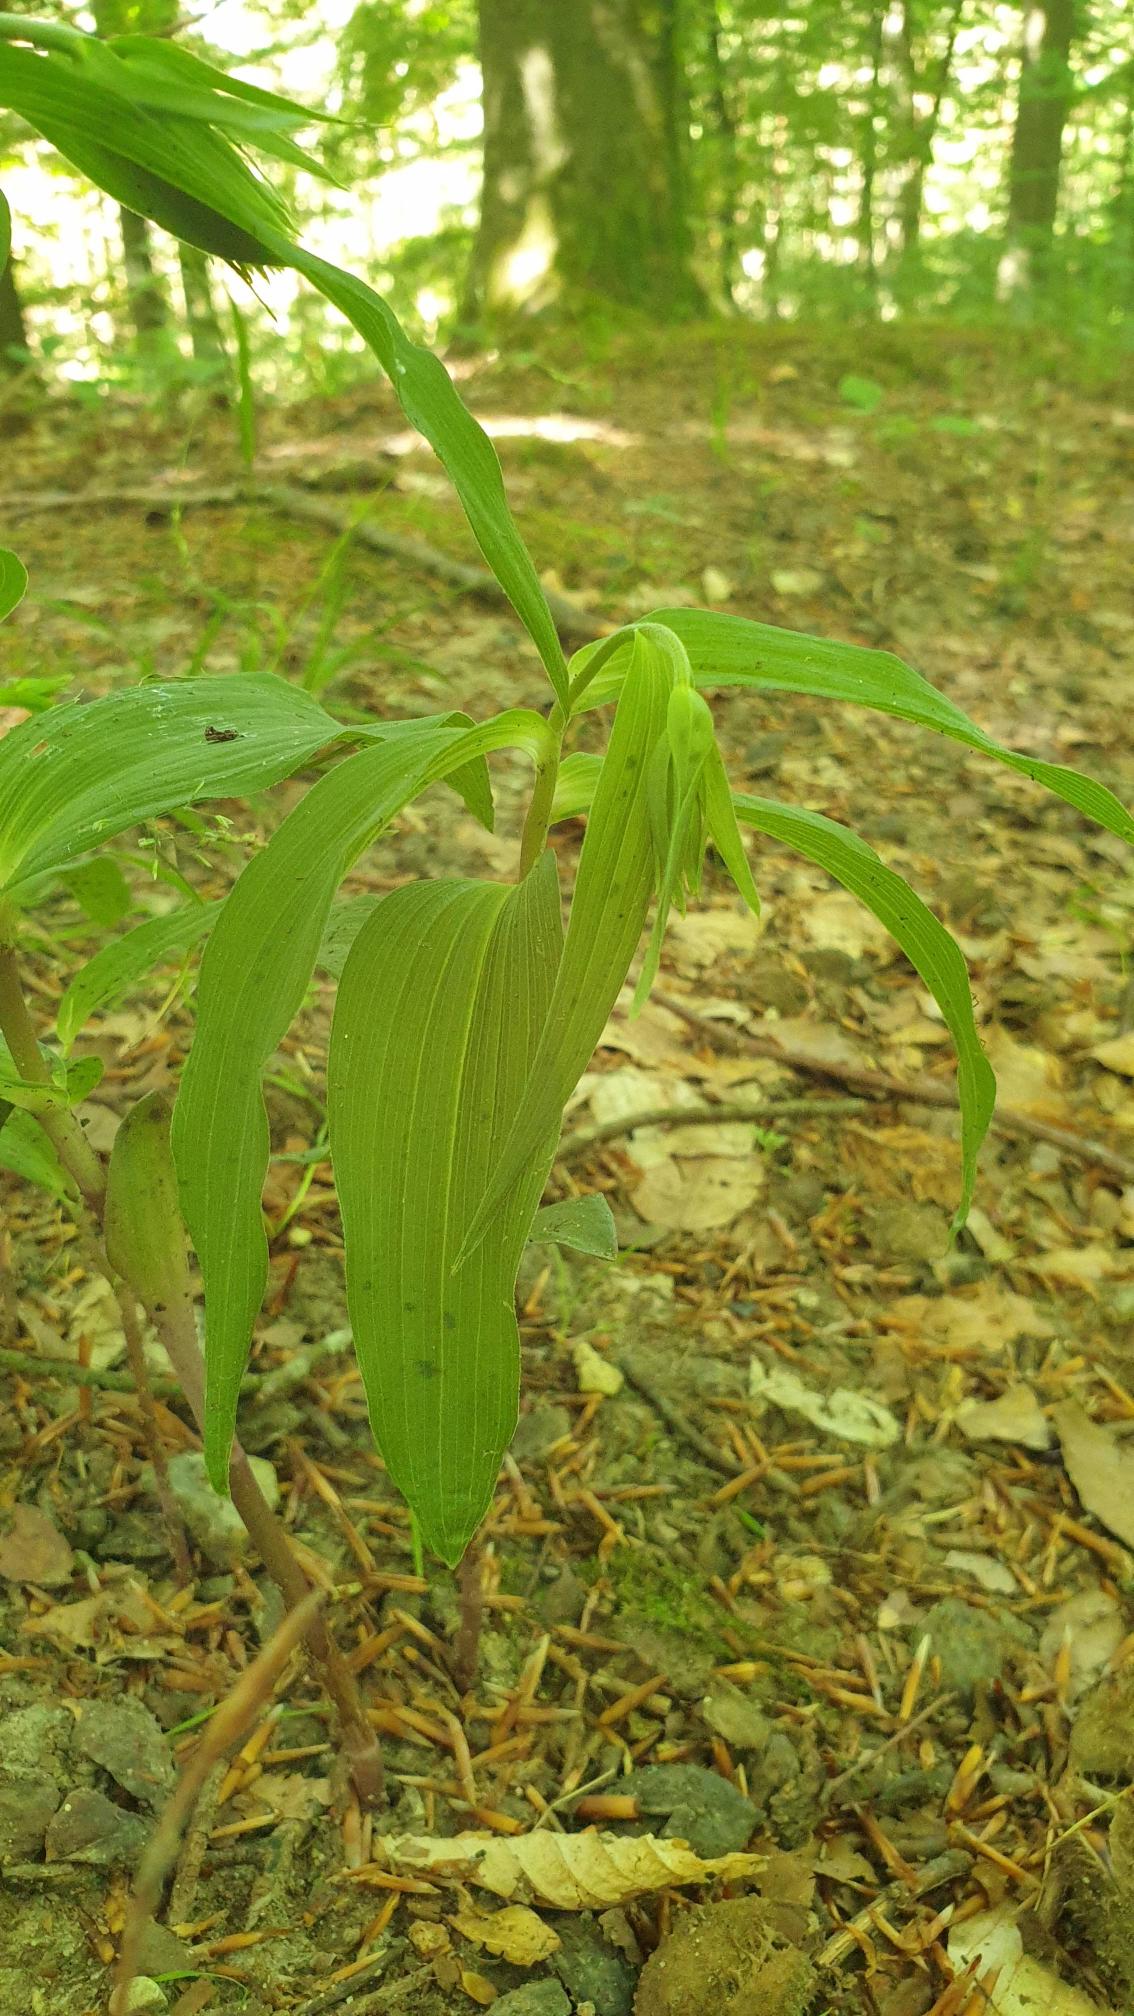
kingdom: Plantae
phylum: Tracheophyta
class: Liliopsida
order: Asparagales
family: Orchidaceae
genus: Epipactis
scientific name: Epipactis helleborine
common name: Skov-hullæbe
